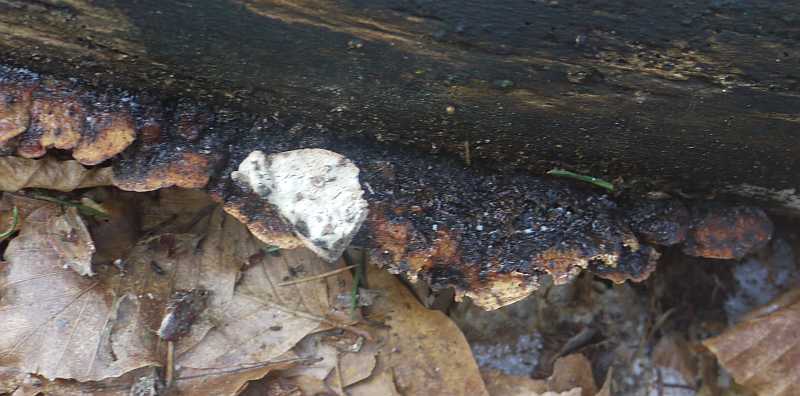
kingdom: Fungi
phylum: Basidiomycota
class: Agaricomycetes
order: Polyporales
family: Incrustoporiaceae
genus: Skeletocutis
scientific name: Skeletocutis nemoralis
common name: stor krystalporesvamp
